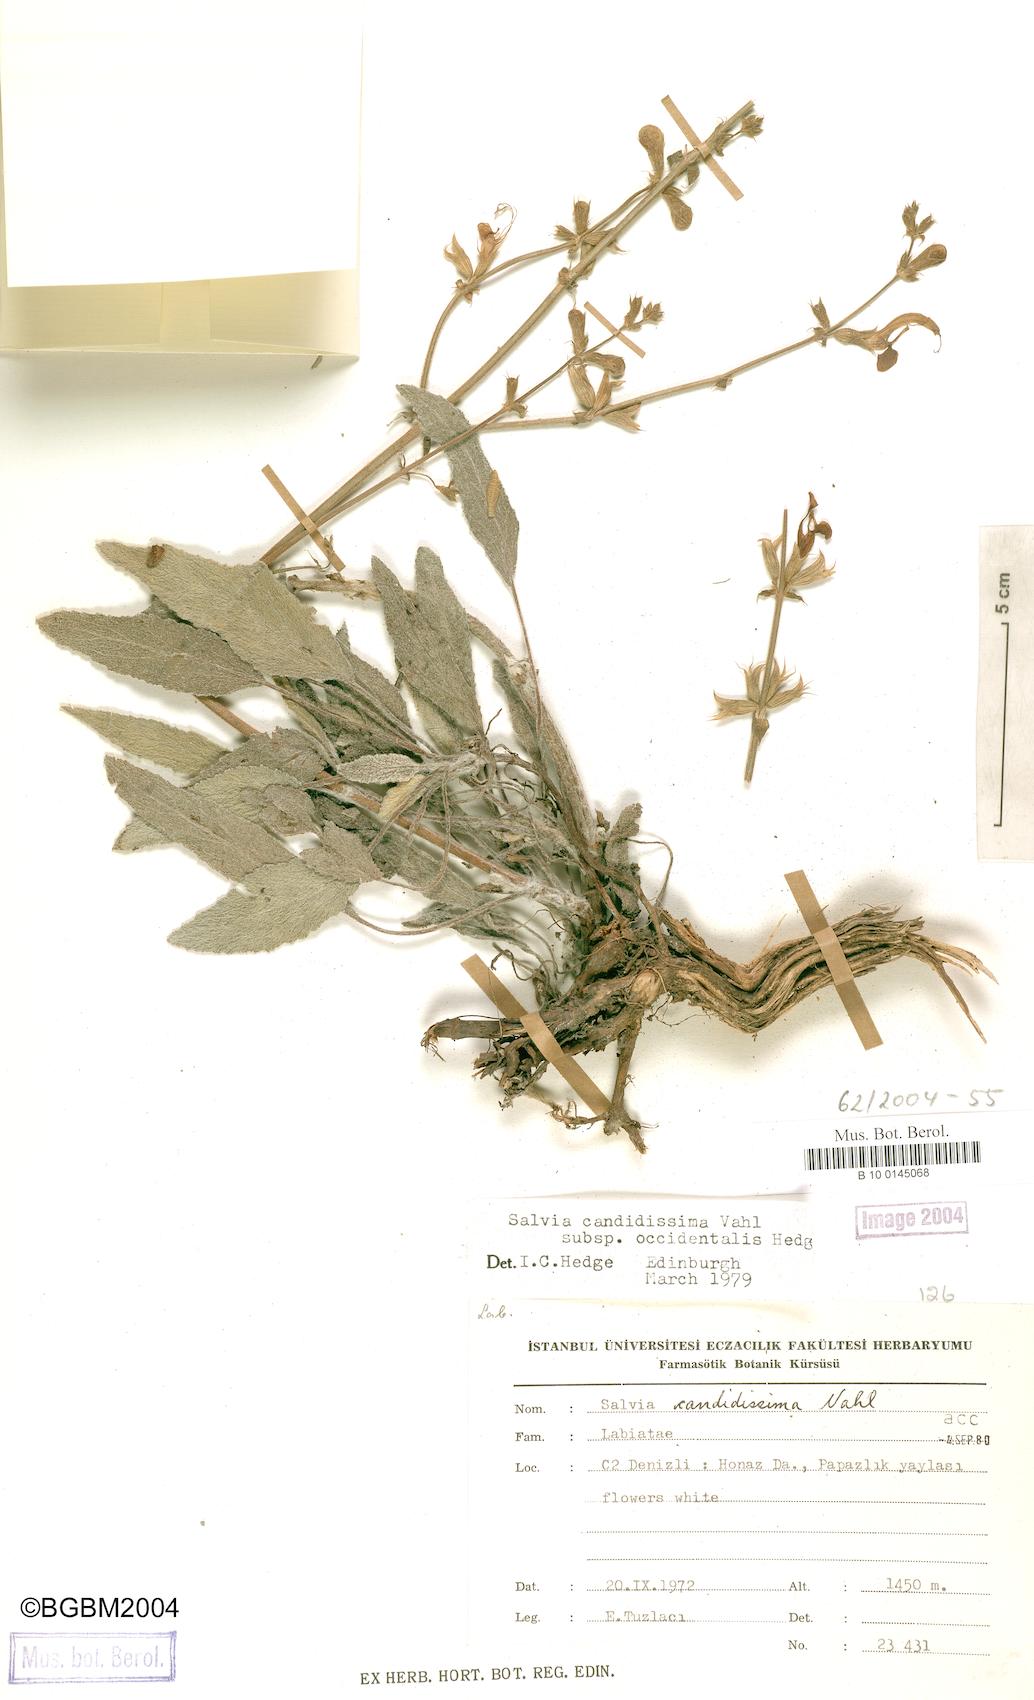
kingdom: Plantae
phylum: Tracheophyta
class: Magnoliopsida
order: Lamiales
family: Lamiaceae
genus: Salvia
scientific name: Salvia candidissima
